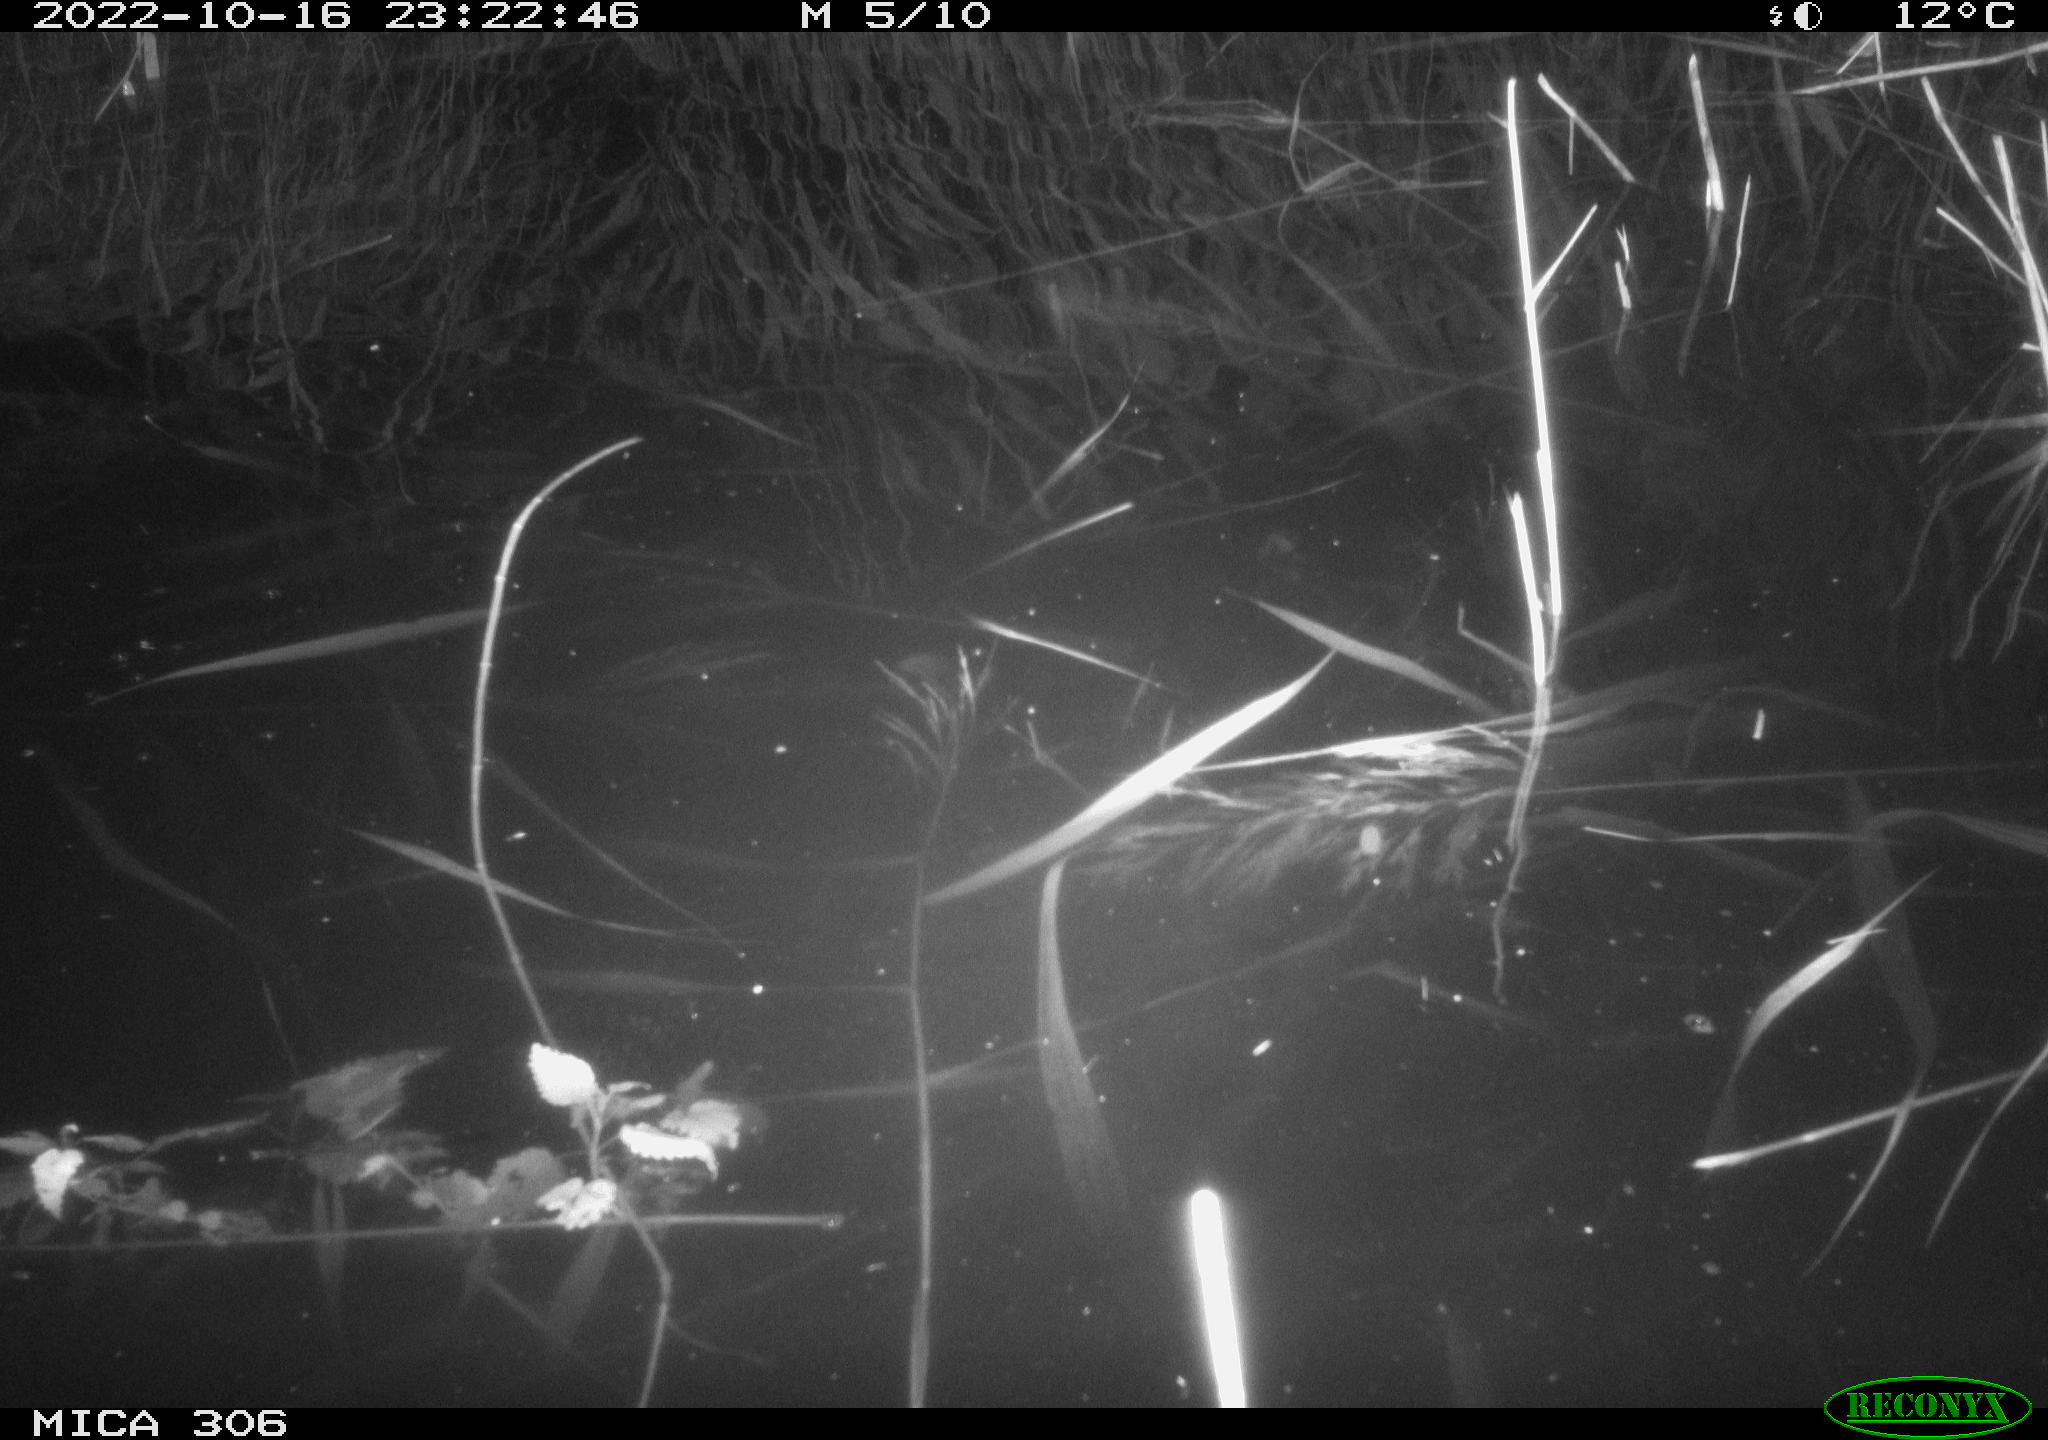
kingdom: Animalia
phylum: Chordata
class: Mammalia
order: Rodentia
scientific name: Rodentia
